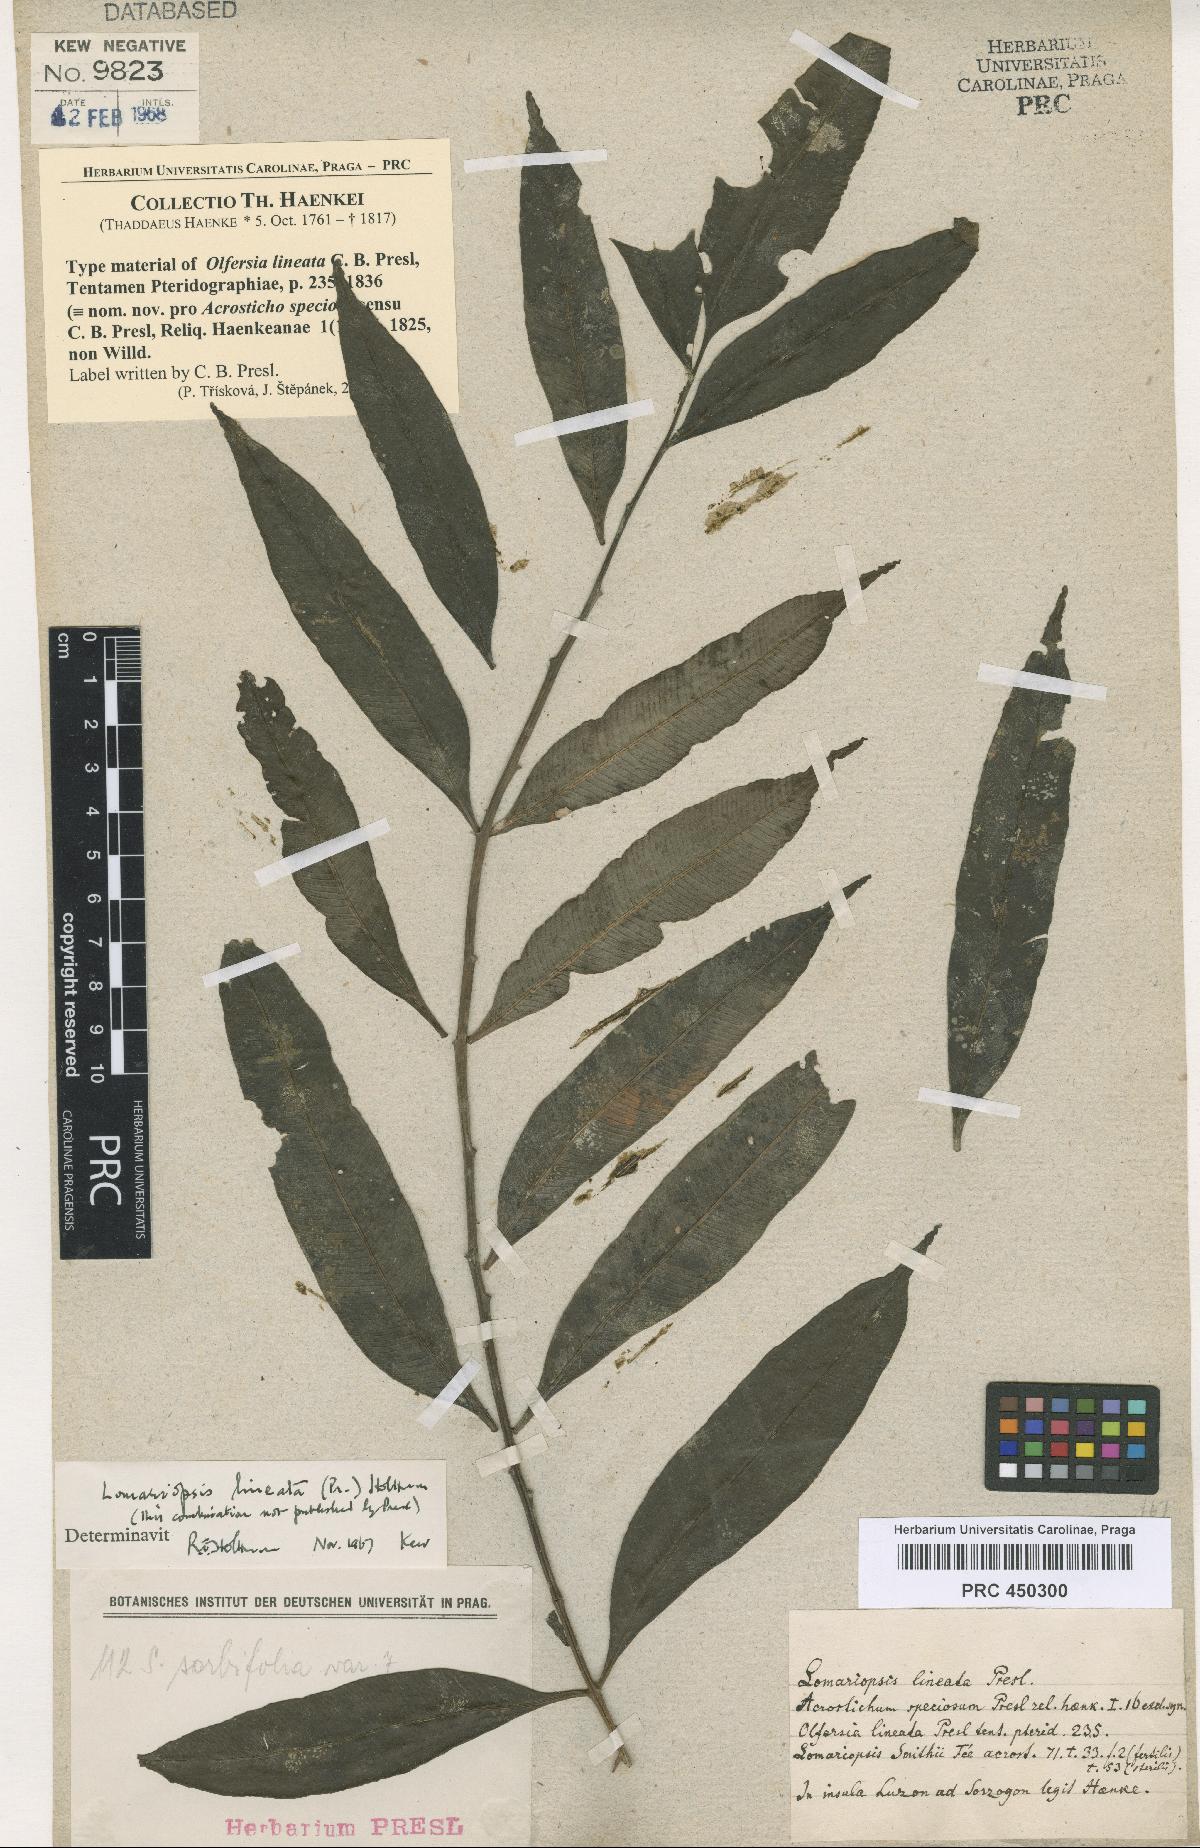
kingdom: Plantae
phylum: Tracheophyta
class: Polypodiopsida
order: Polypodiales
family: Lomariopsidaceae
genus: Lomariopsis
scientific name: Lomariopsis lineata
